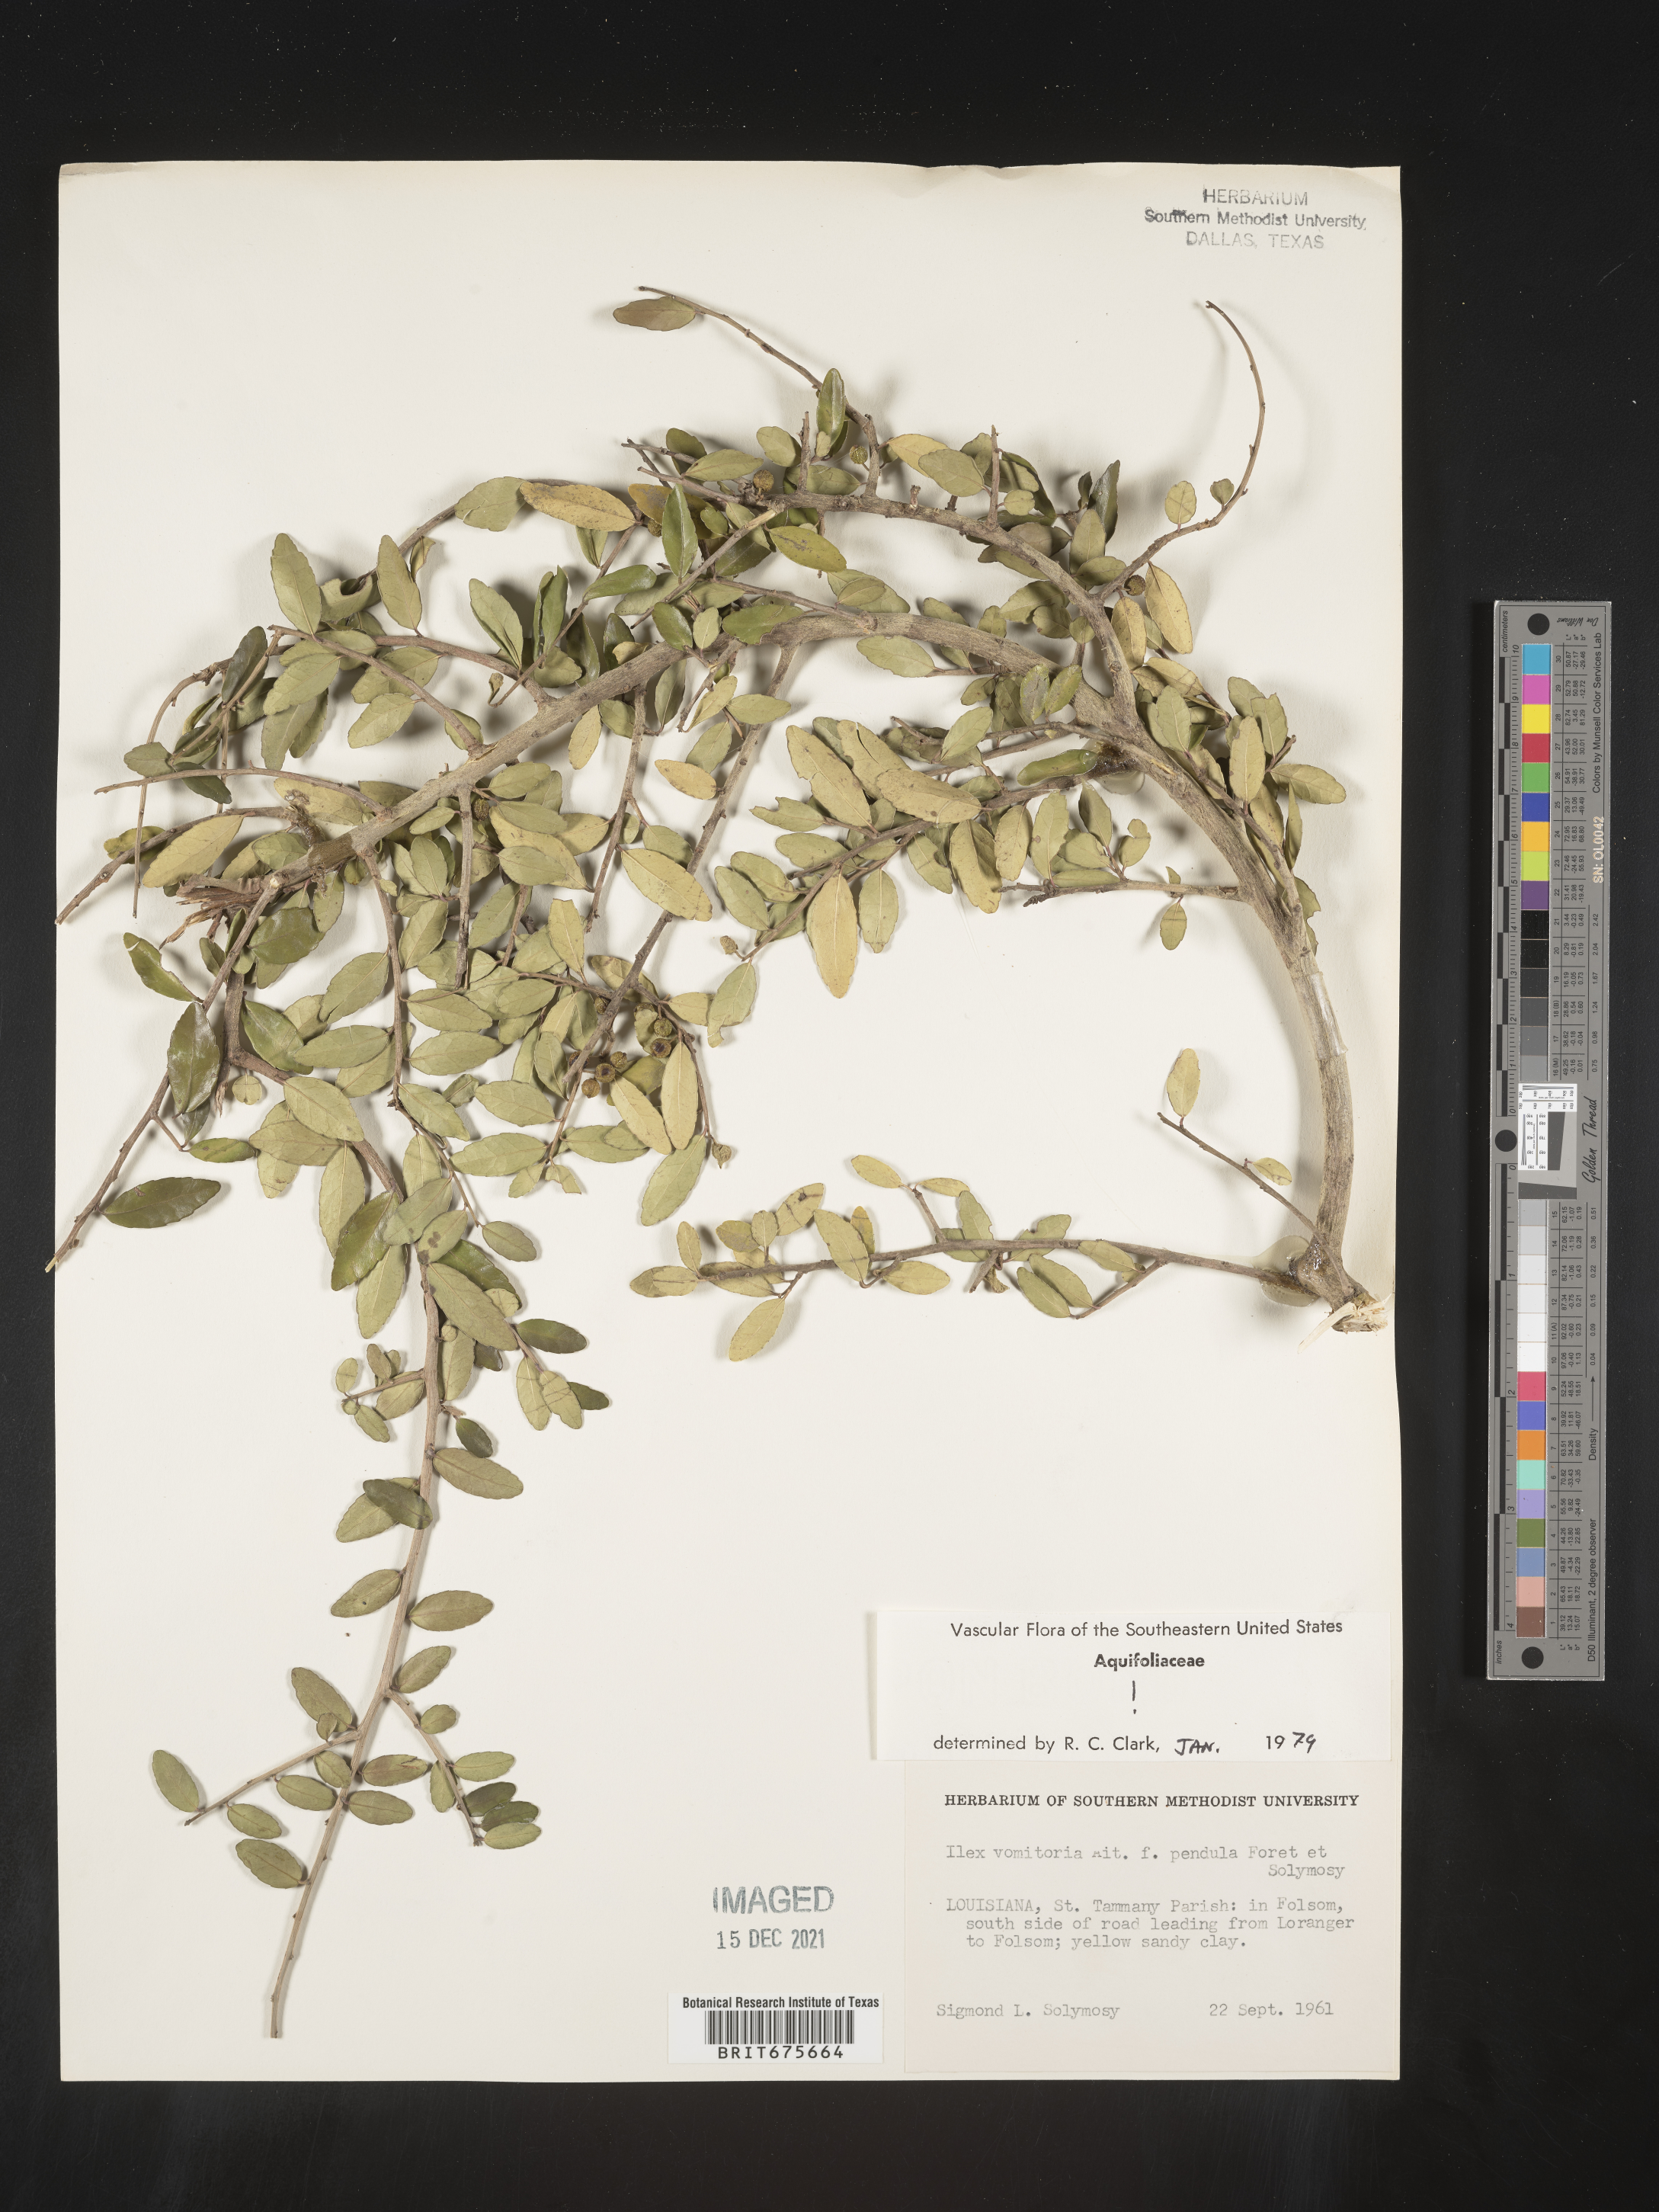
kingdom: Plantae
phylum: Tracheophyta
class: Magnoliopsida
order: Aquifoliales
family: Aquifoliaceae
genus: Ilex
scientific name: Ilex vomitoria
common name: Yaupon holly
